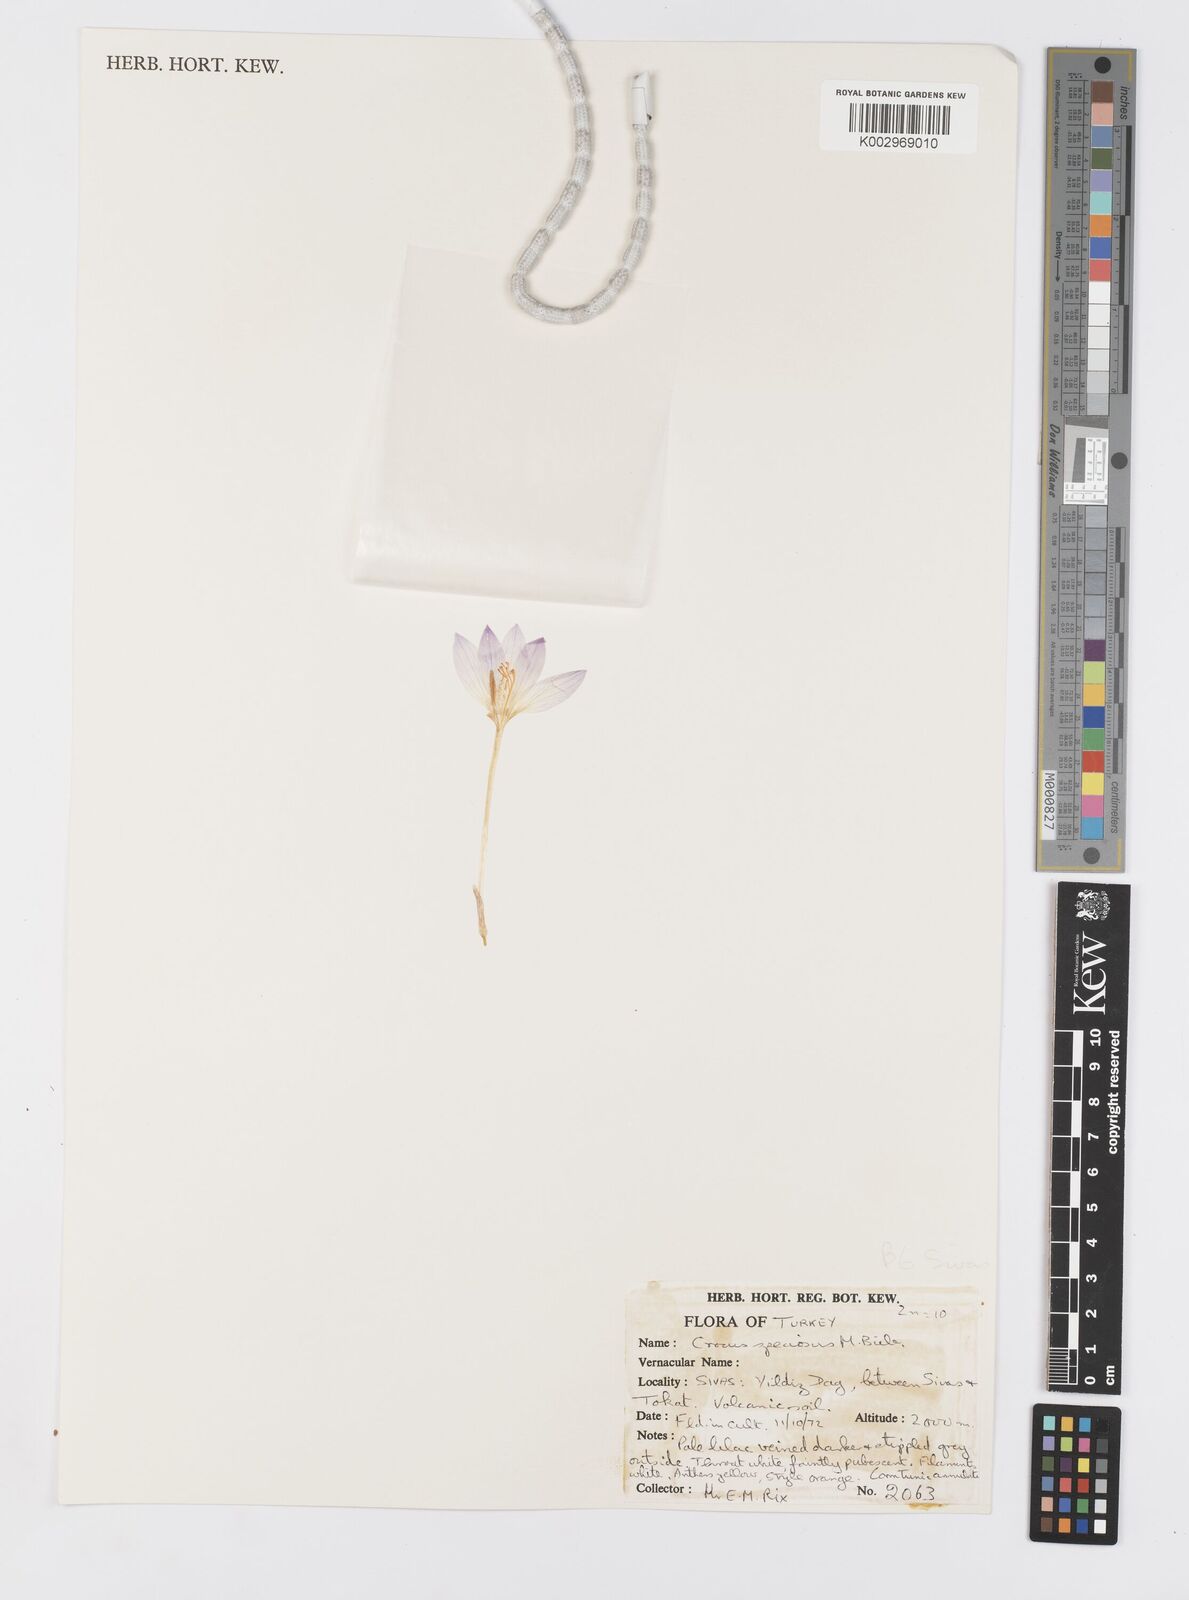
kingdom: Plantae
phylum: Tracheophyta
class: Liliopsida
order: Asparagales
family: Iridaceae
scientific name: Iridaceae
